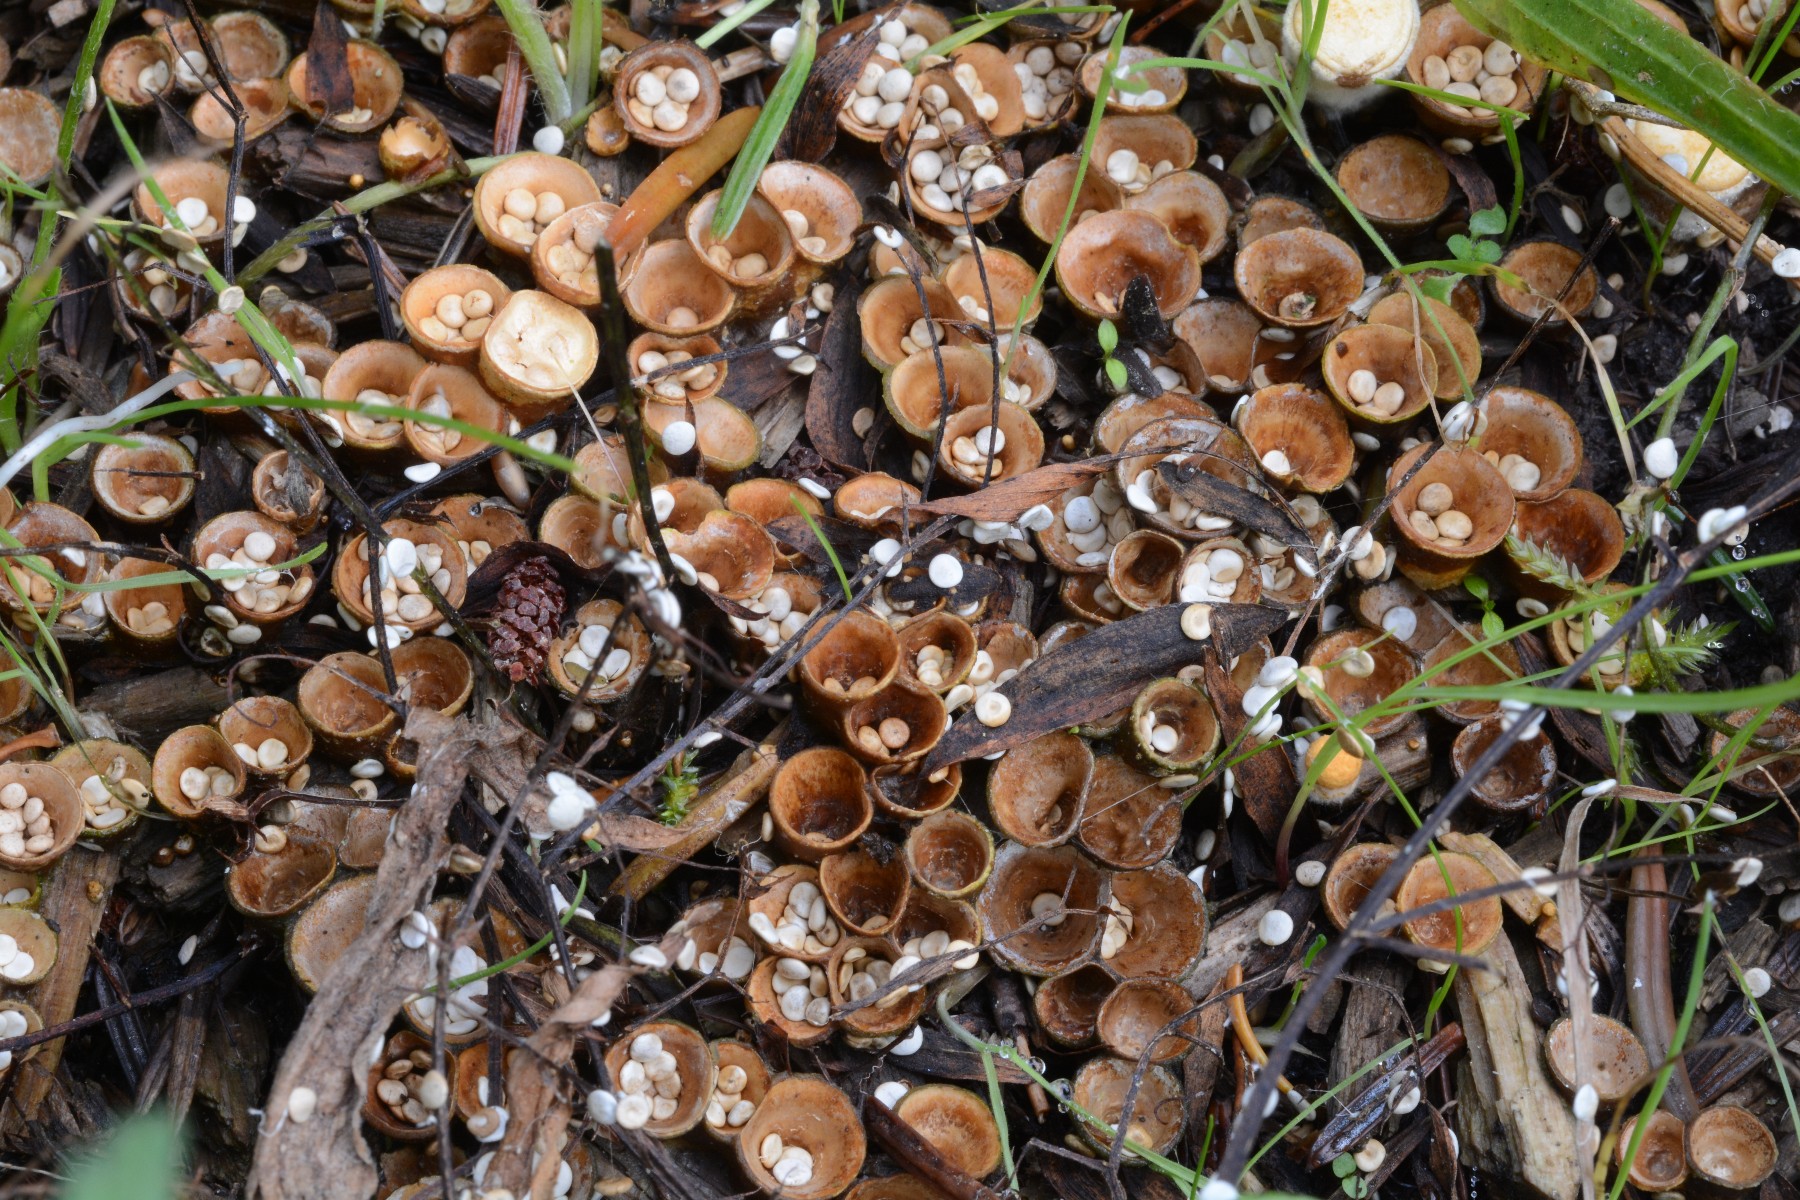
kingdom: Fungi
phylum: Basidiomycota
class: Agaricomycetes
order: Agaricales
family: Nidulariaceae
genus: Crucibulum
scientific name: Crucibulum crucibuliforme
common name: krukkesvamp
